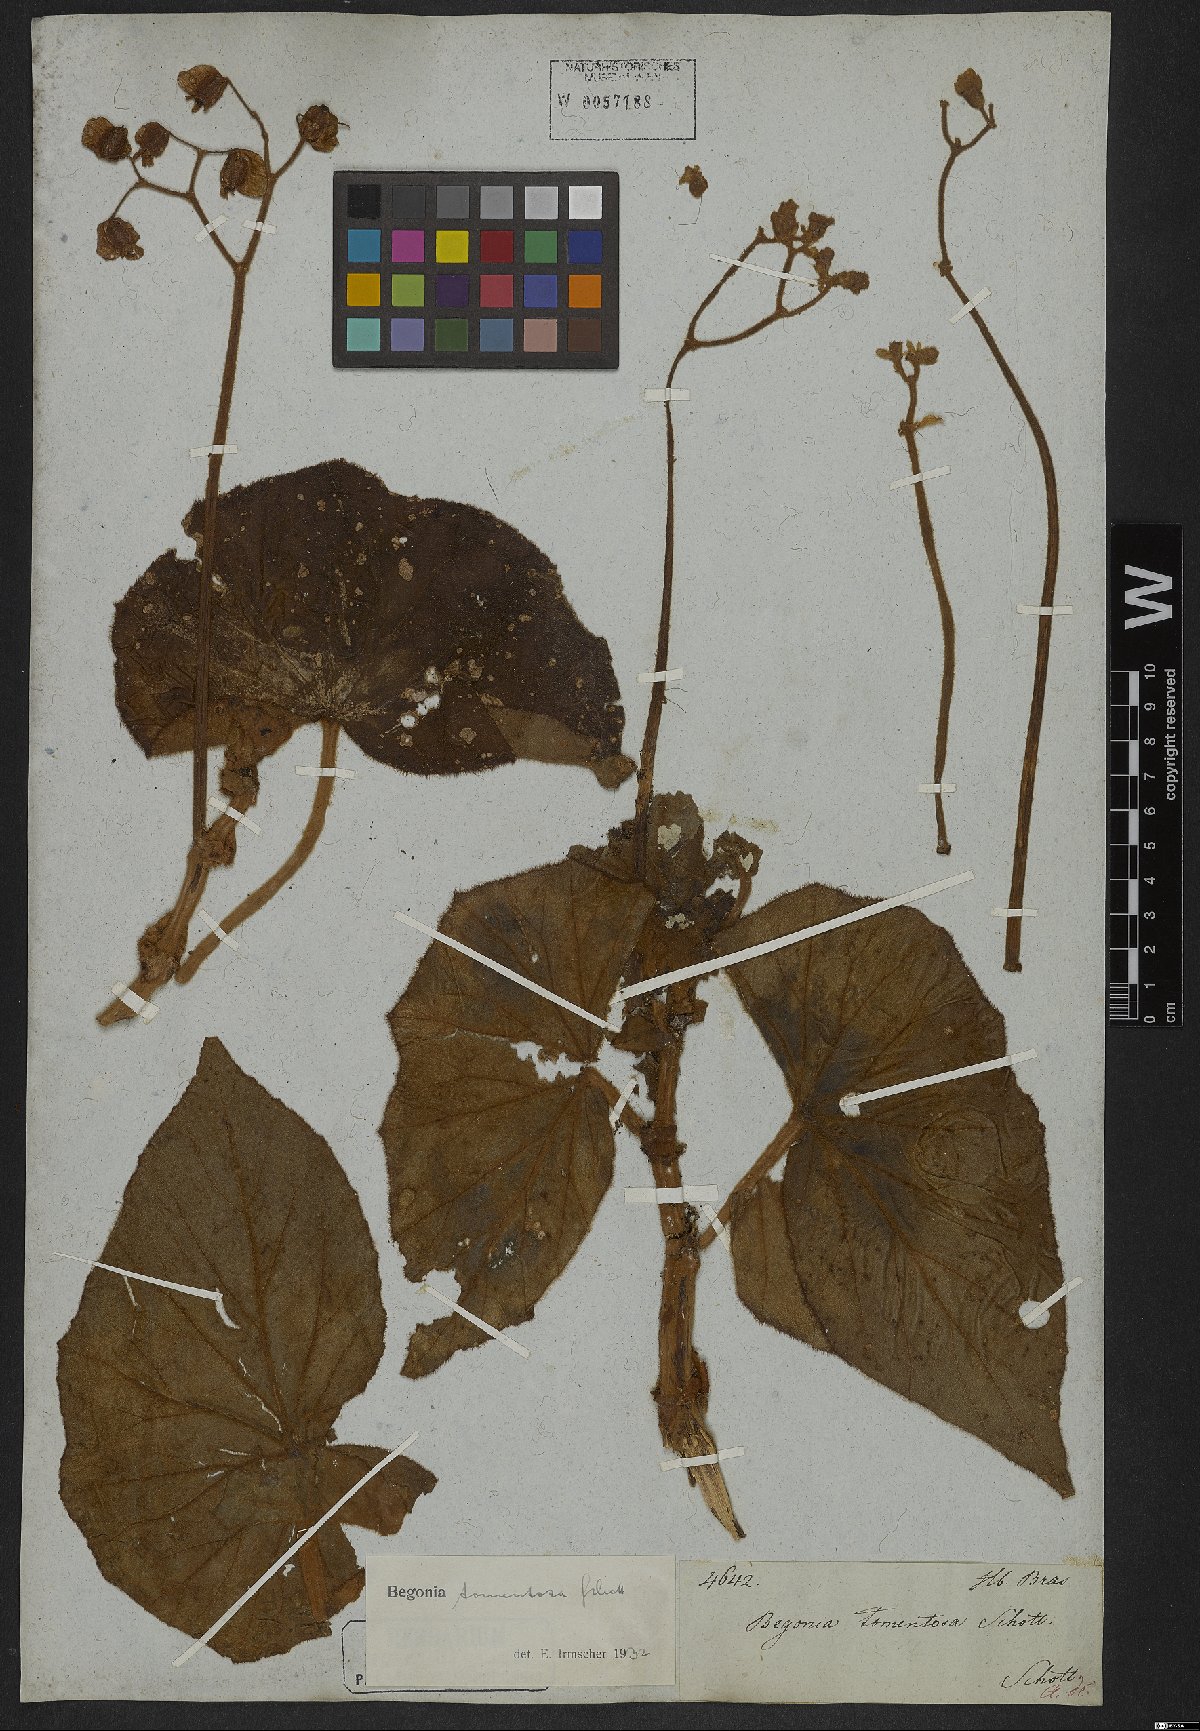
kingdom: Plantae
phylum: Tracheophyta
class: Magnoliopsida
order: Cucurbitales
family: Begoniaceae
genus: Begonia
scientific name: Begonia tomentosa
